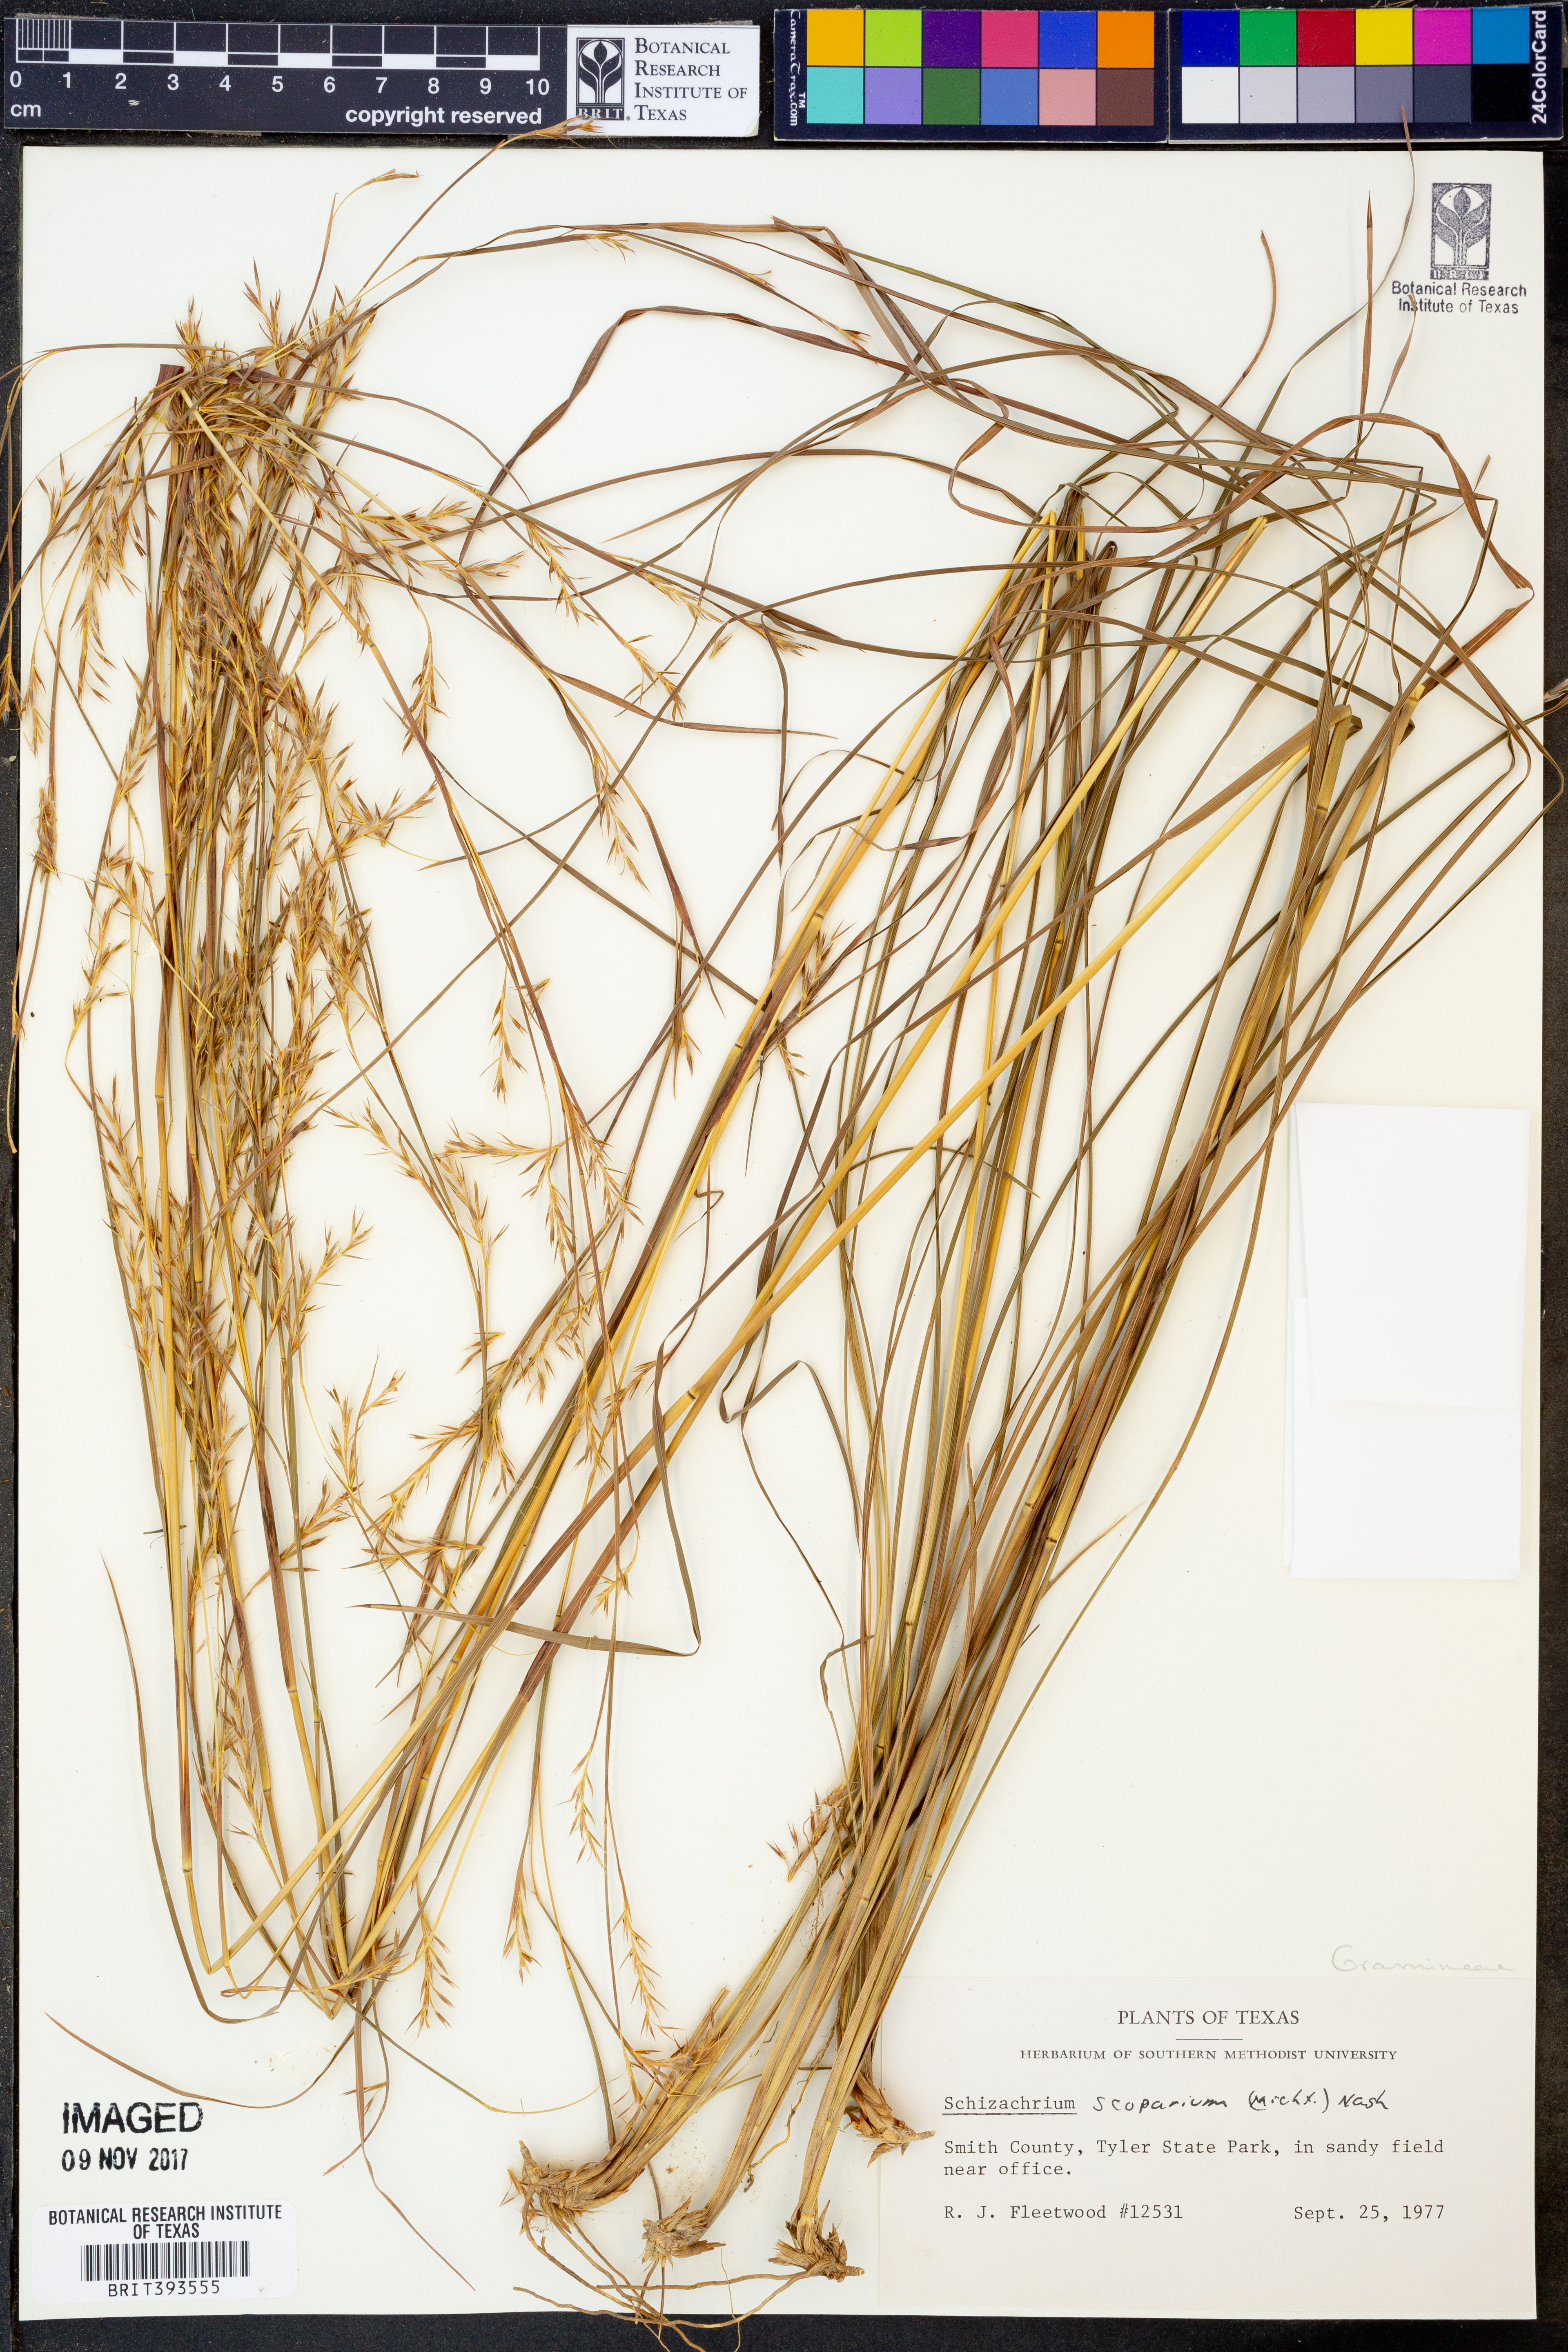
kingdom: Plantae
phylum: Tracheophyta
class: Liliopsida
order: Poales
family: Poaceae
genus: Schizachyrium
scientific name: Schizachyrium scoparium
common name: Little bluestem
